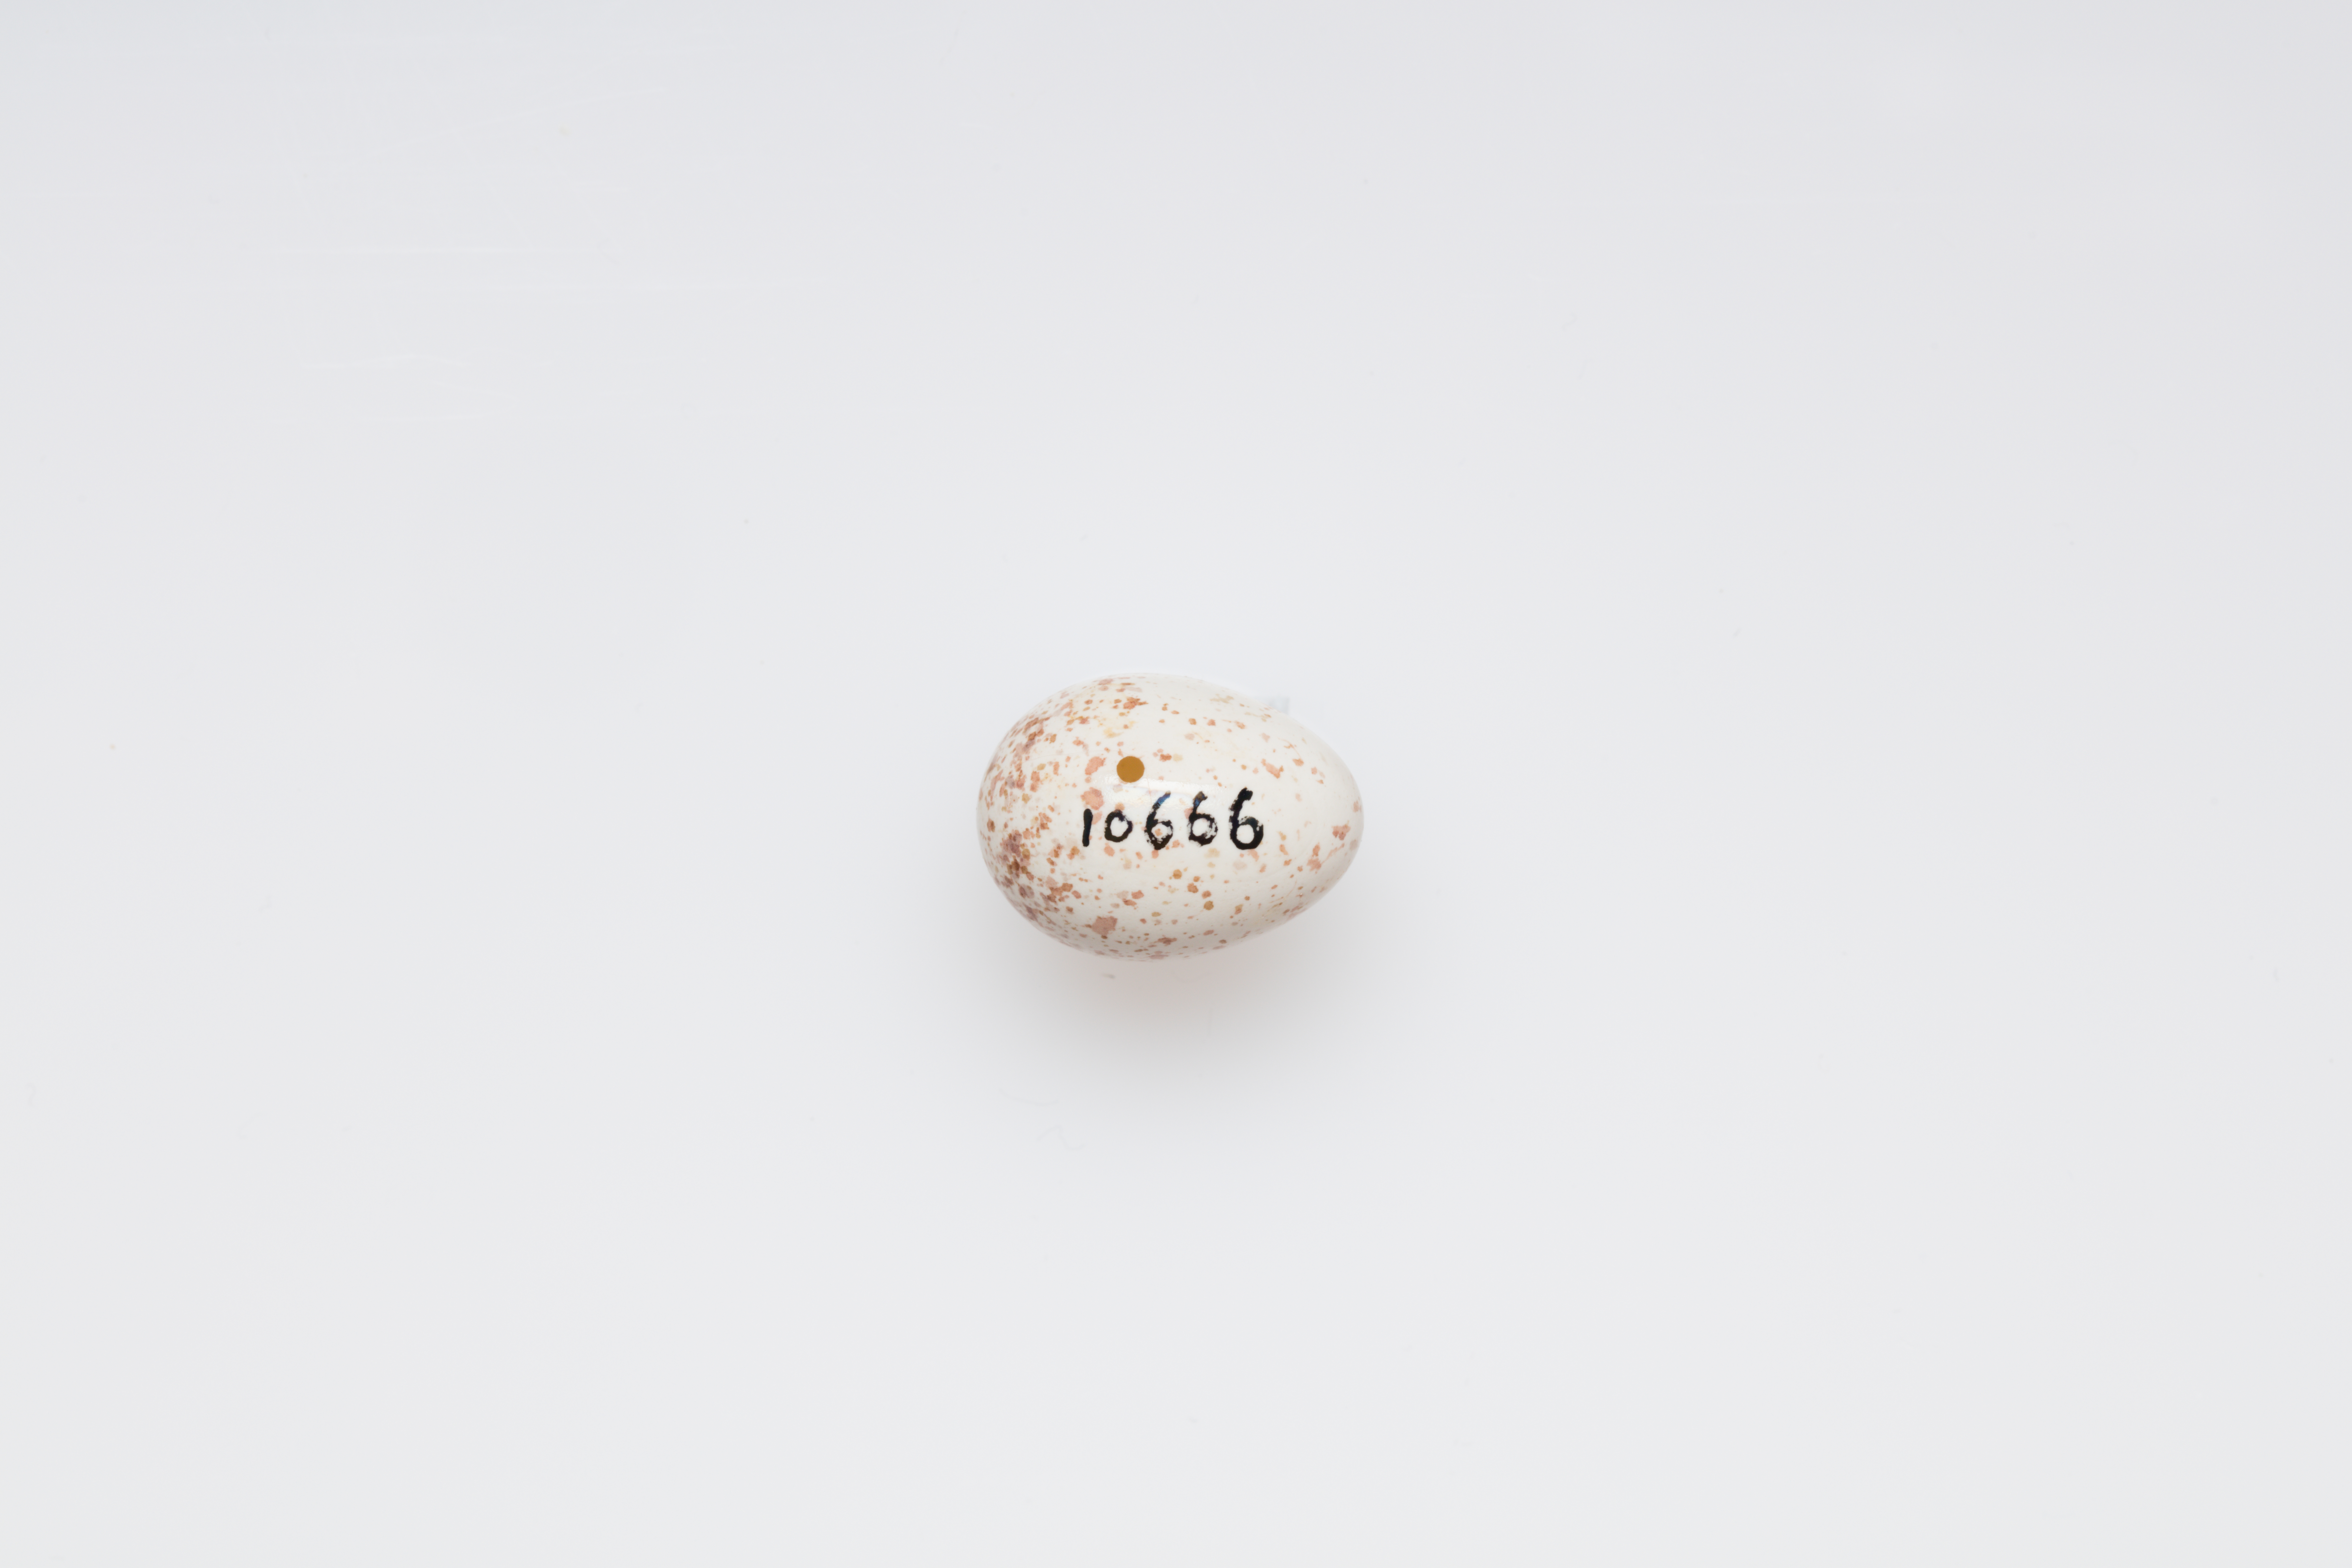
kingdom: Animalia
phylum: Chordata
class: Aves
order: Passeriformes
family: Paridae
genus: Cyanistes
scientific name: Cyanistes caeruleus
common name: Eurasian blue tit
